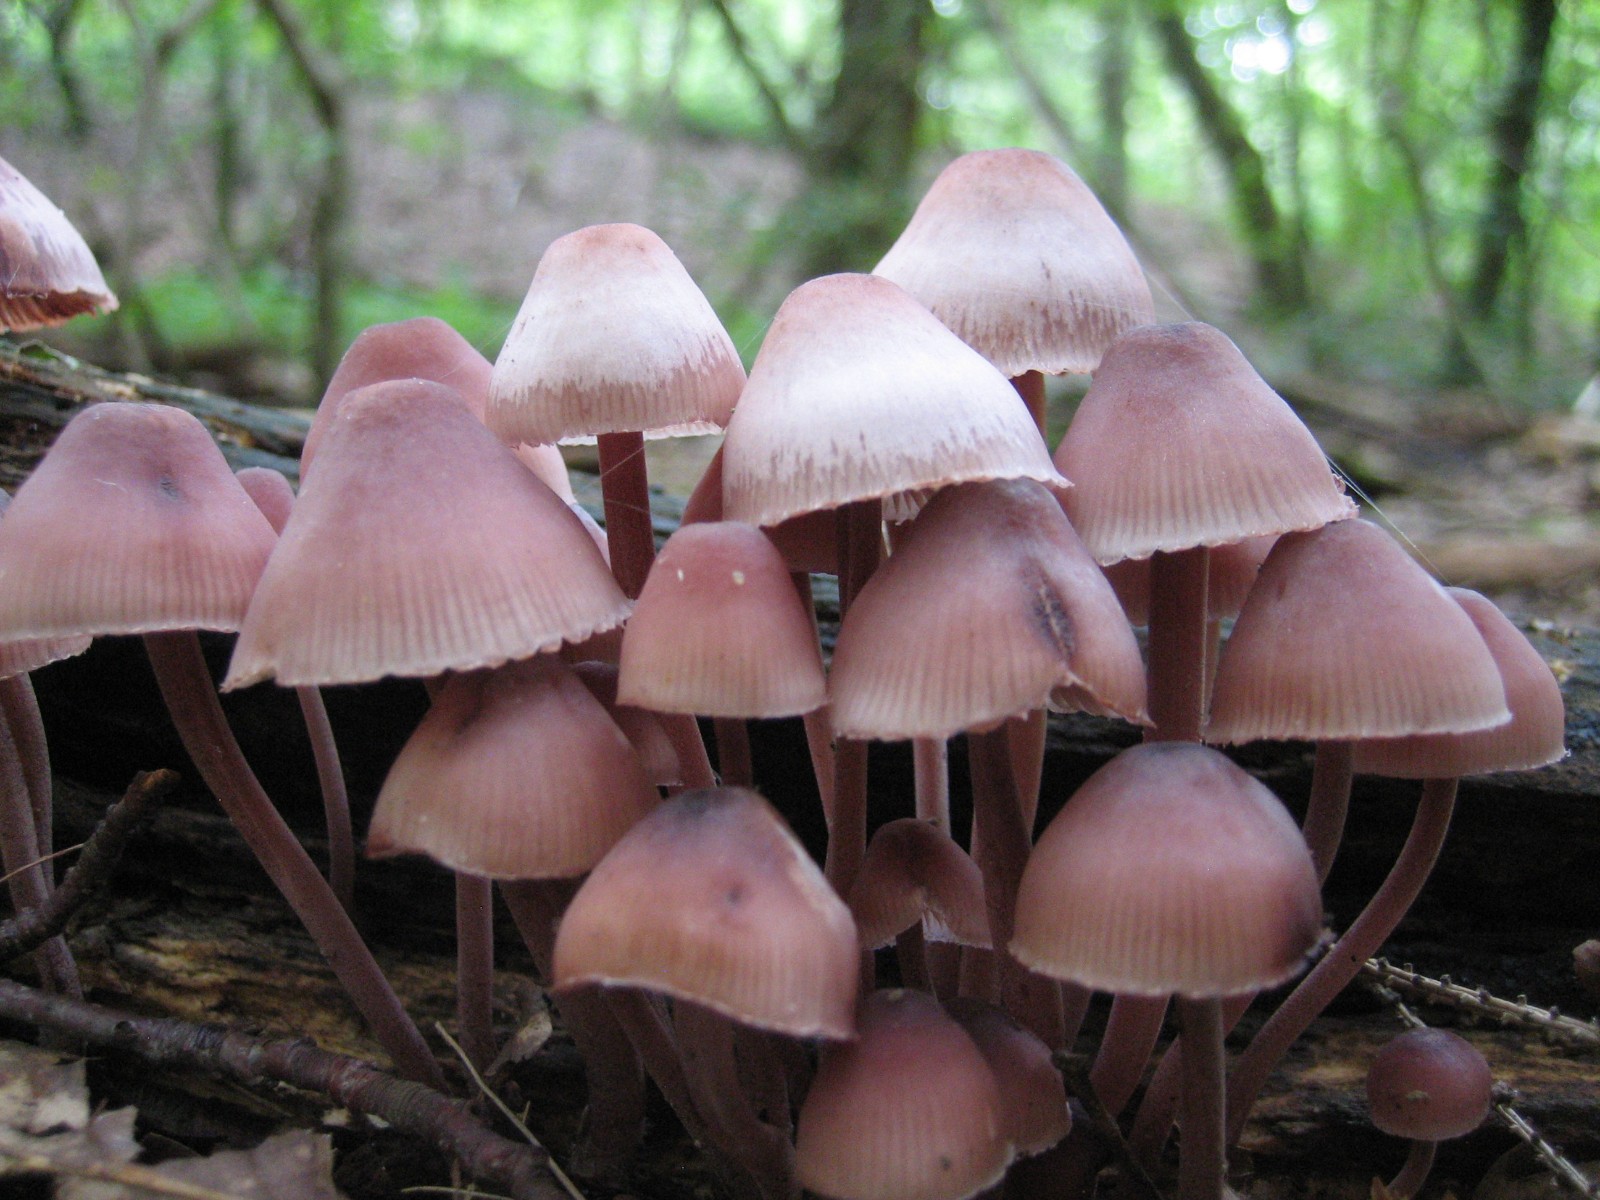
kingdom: Fungi
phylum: Basidiomycota
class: Agaricomycetes
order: Agaricales
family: Mycenaceae
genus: Mycena
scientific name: Mycena haematopus
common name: blødende huesvamp
